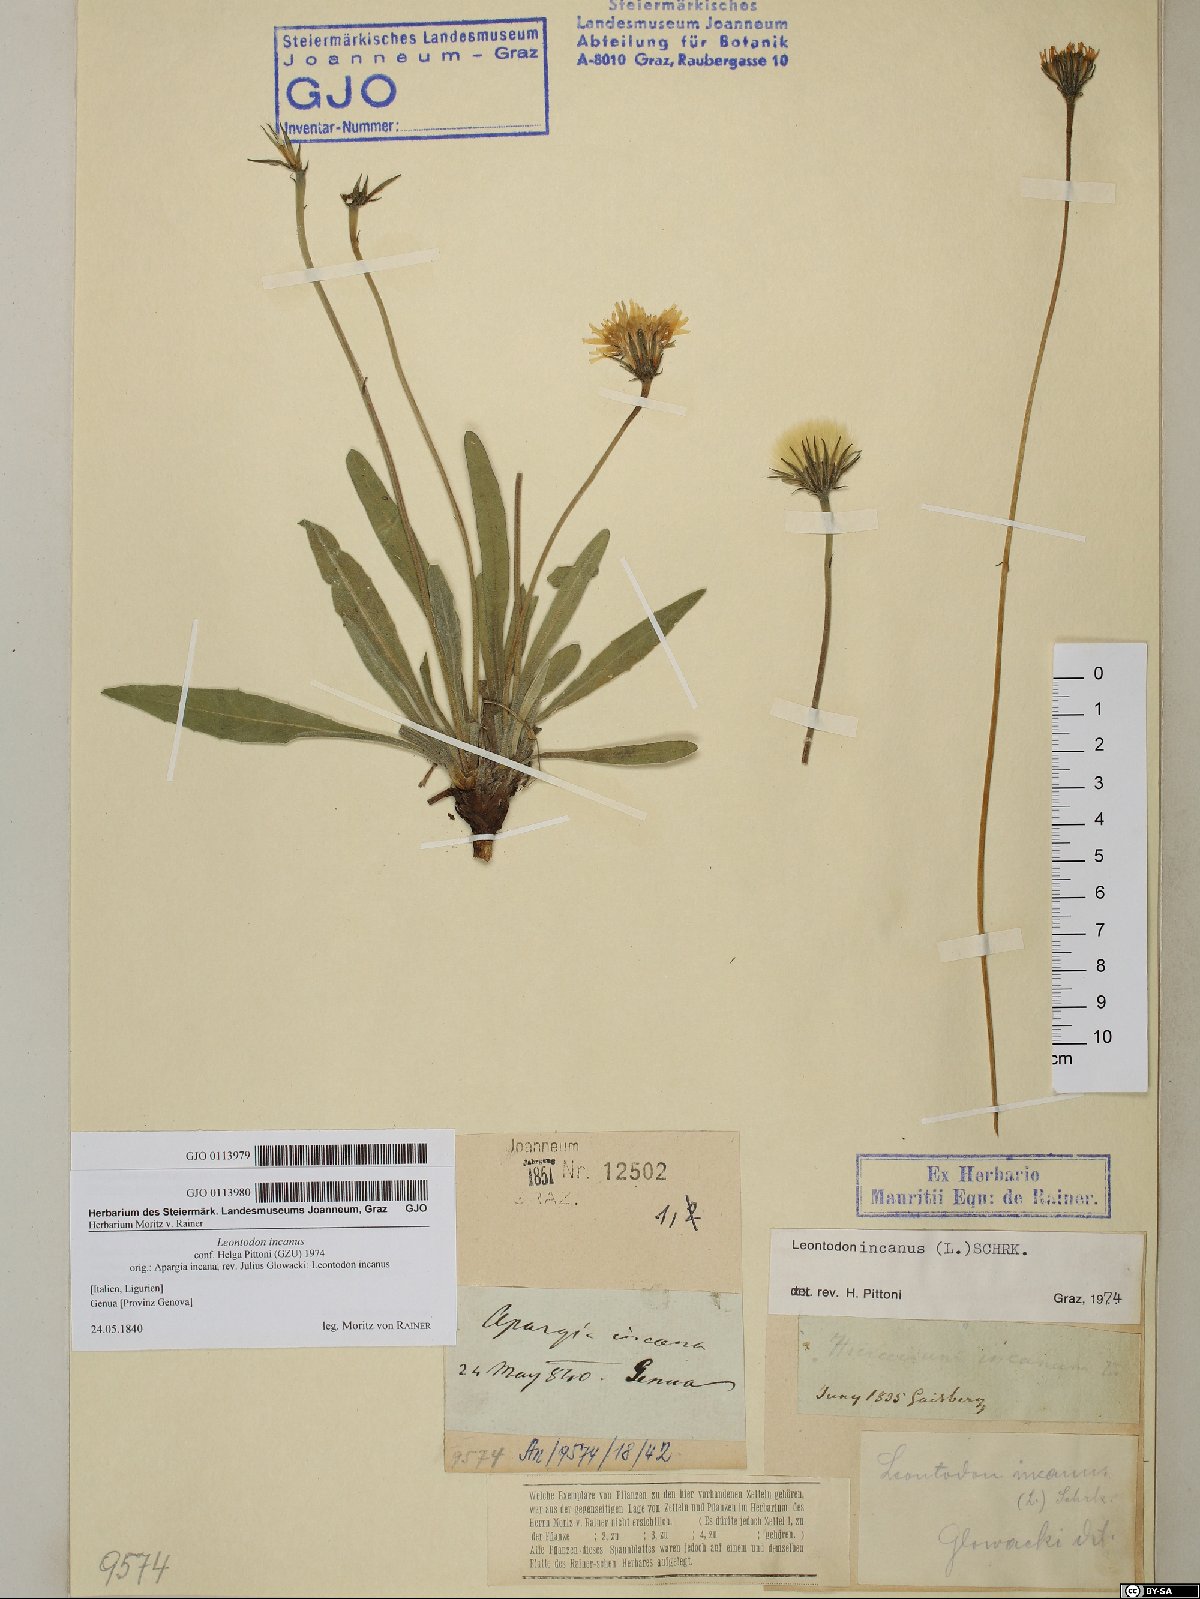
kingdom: Plantae
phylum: Tracheophyta
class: Magnoliopsida
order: Asterales
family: Asteraceae
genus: Leontodon
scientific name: Leontodon incanus
